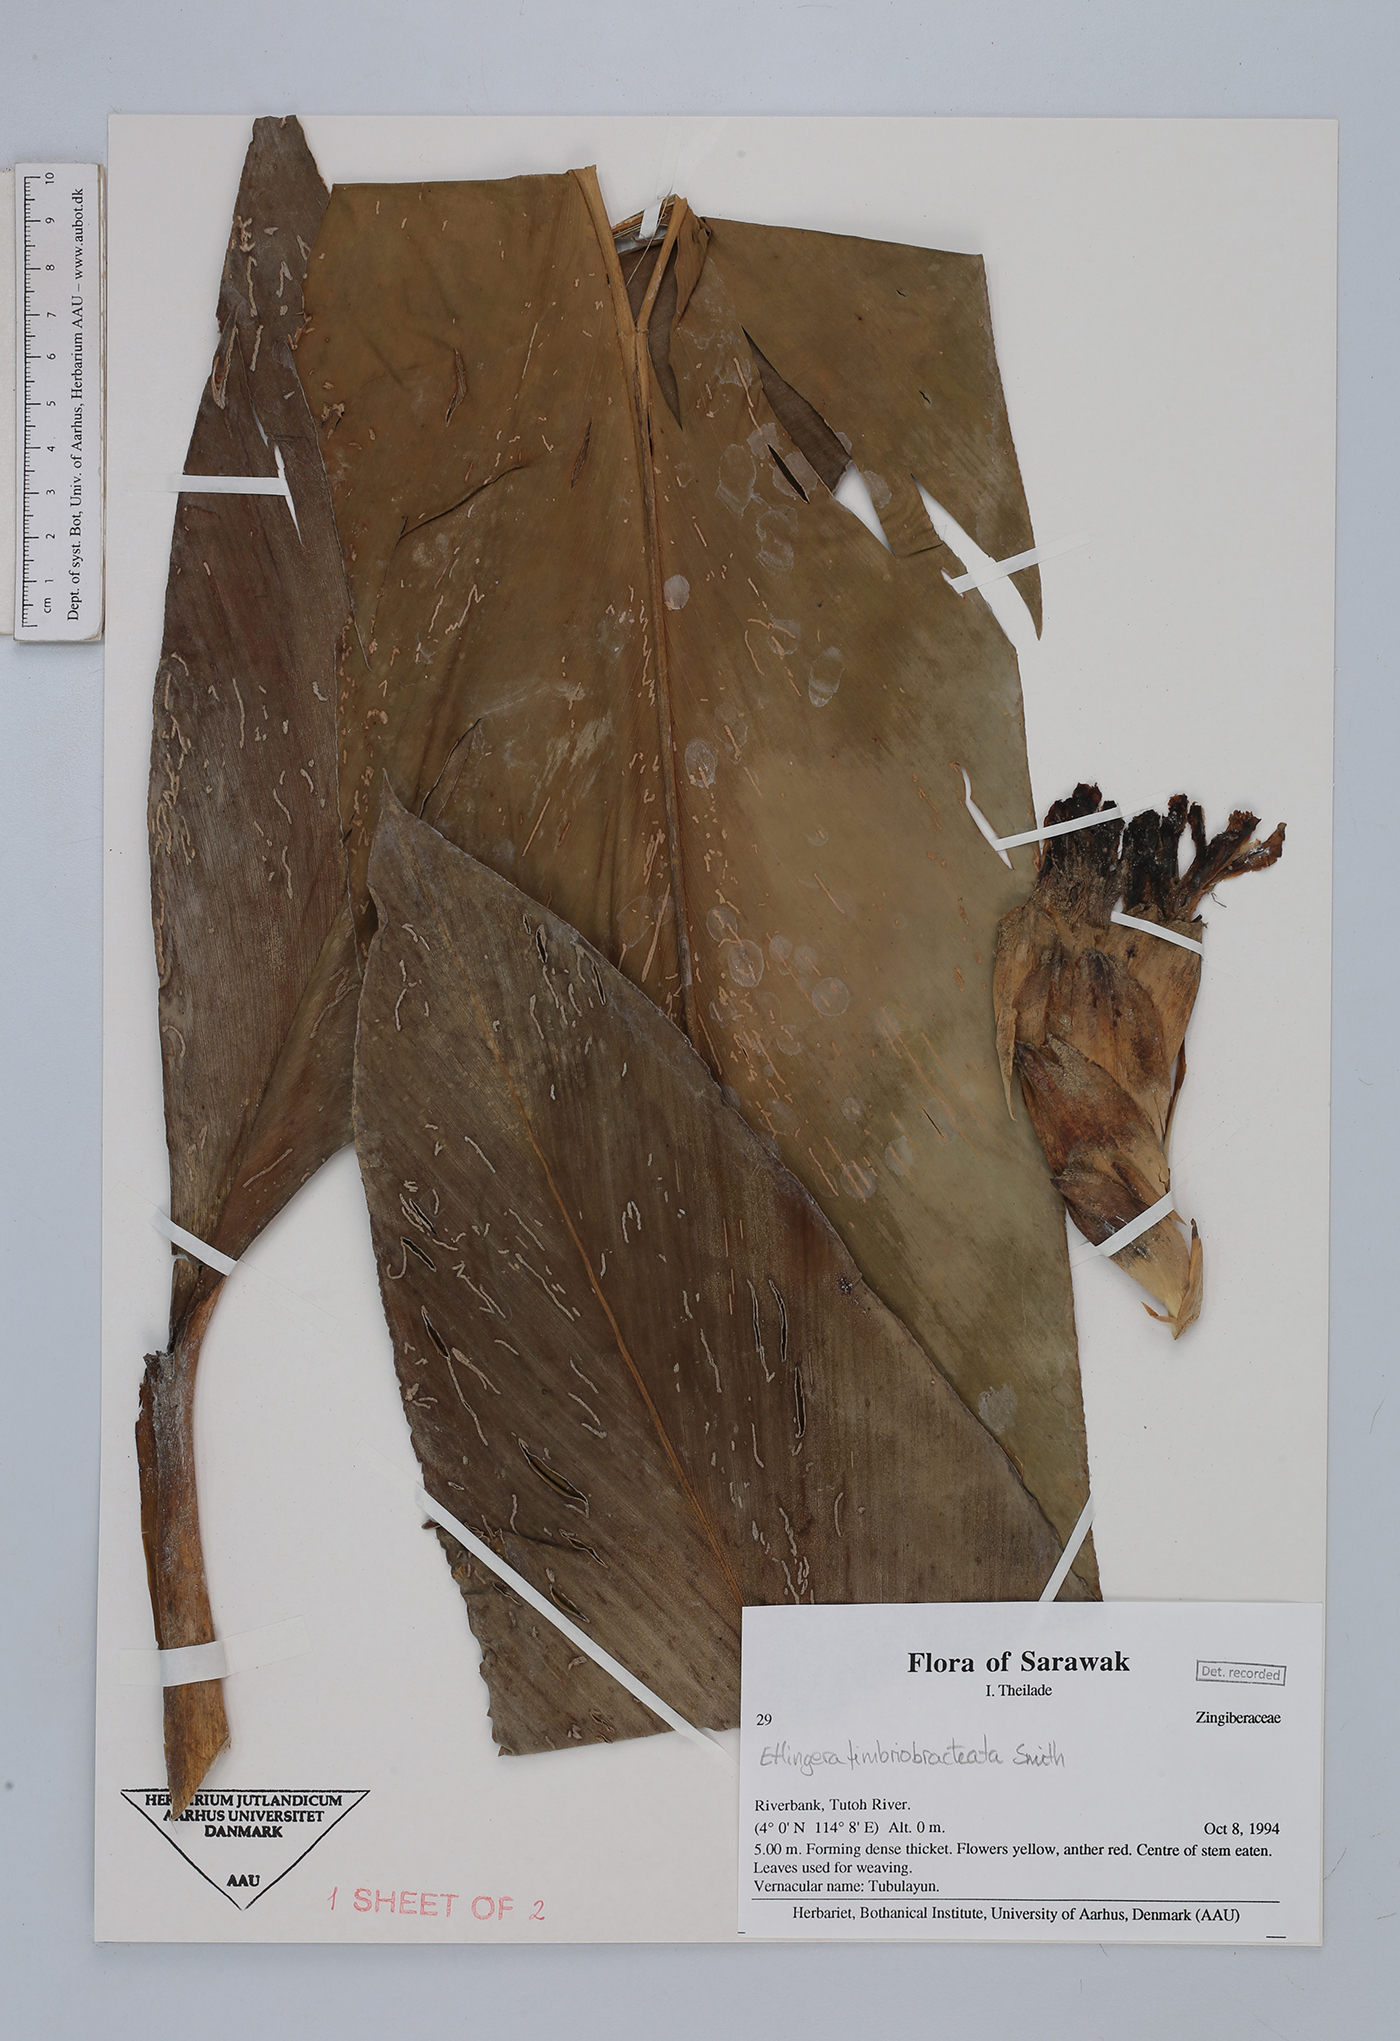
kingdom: Plantae
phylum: Tracheophyta
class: Liliopsida
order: Zingiberales
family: Zingiberaceae
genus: Etlingera
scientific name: Etlingera fimbriobracteata
